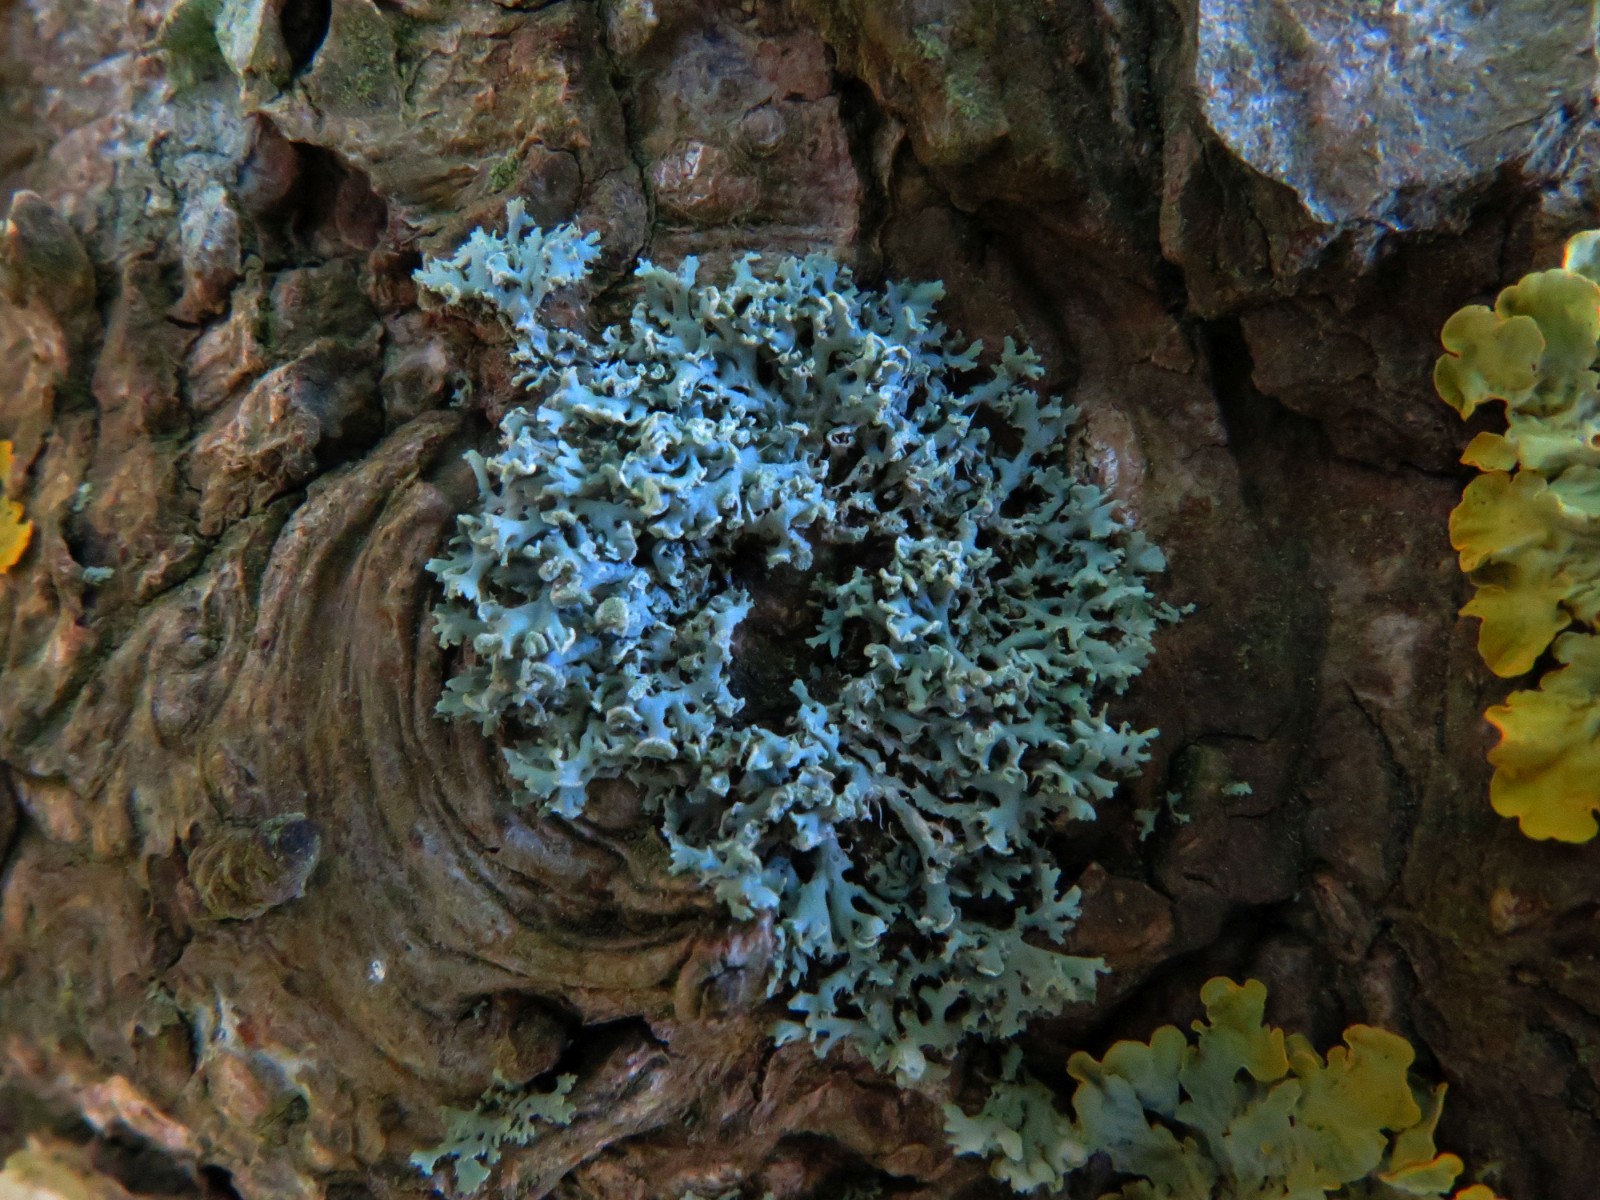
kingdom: Fungi
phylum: Ascomycota
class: Lecanoromycetes
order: Lecanorales
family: Parmeliaceae
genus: Hypogymnia
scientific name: Hypogymnia physodes
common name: almindelig kvistlav
